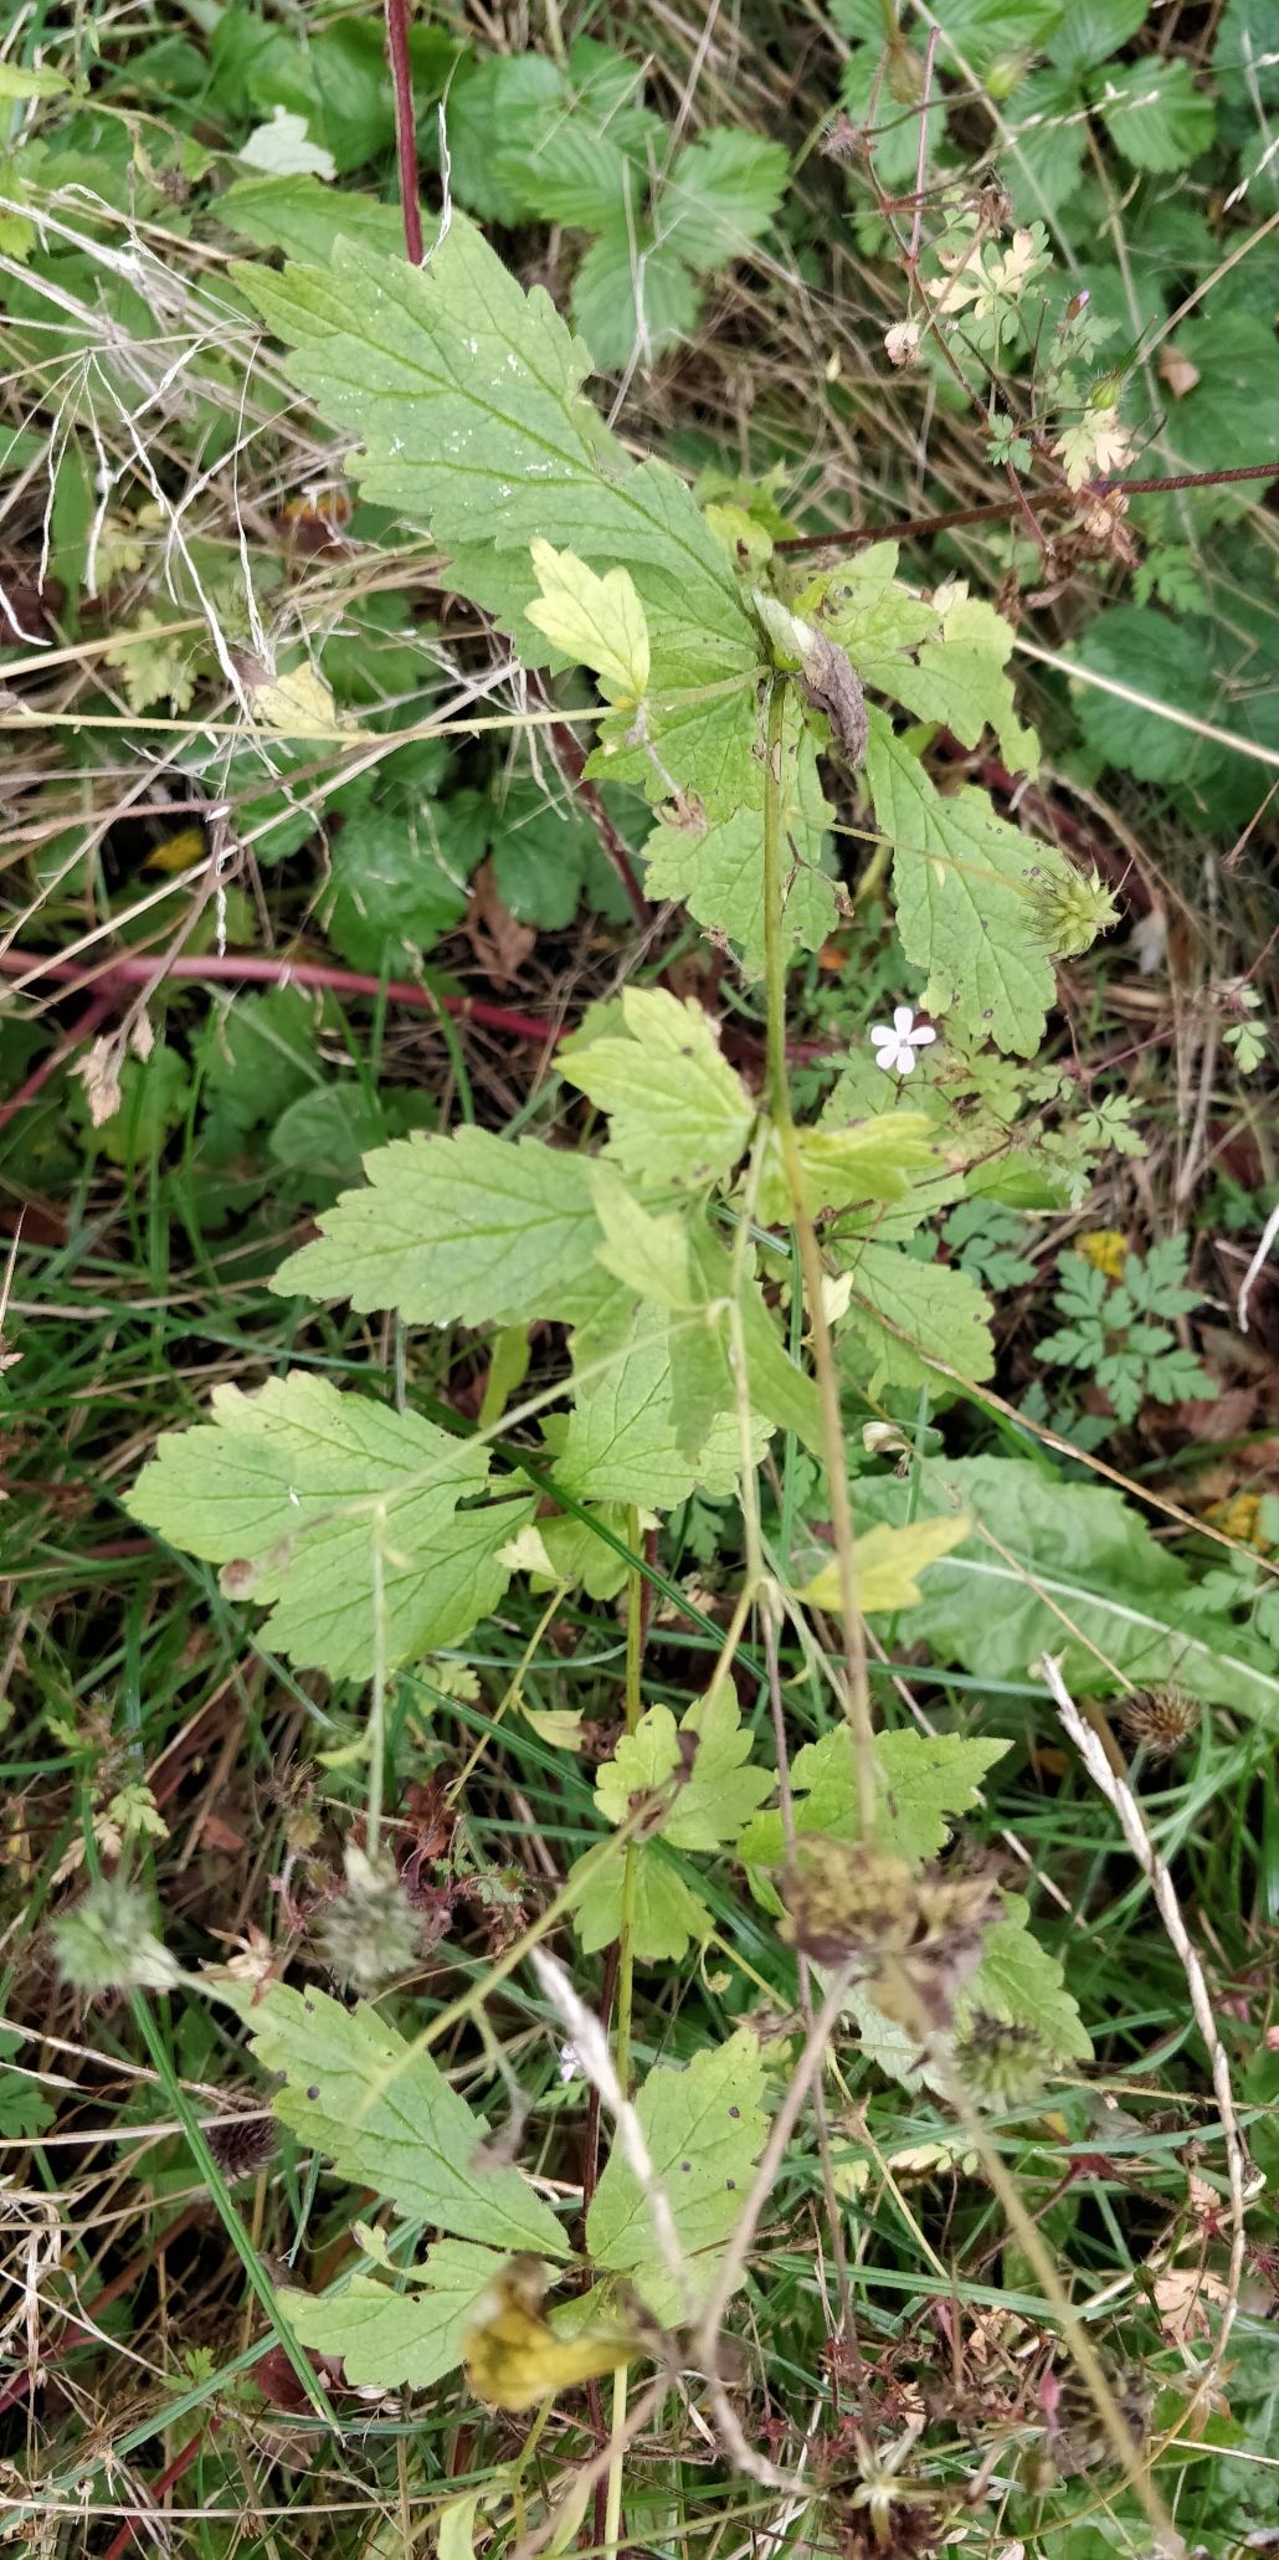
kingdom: Plantae
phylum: Tracheophyta
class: Magnoliopsida
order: Rosales
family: Rosaceae
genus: Geum
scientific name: Geum urbanum
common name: Feber-nellikerod
